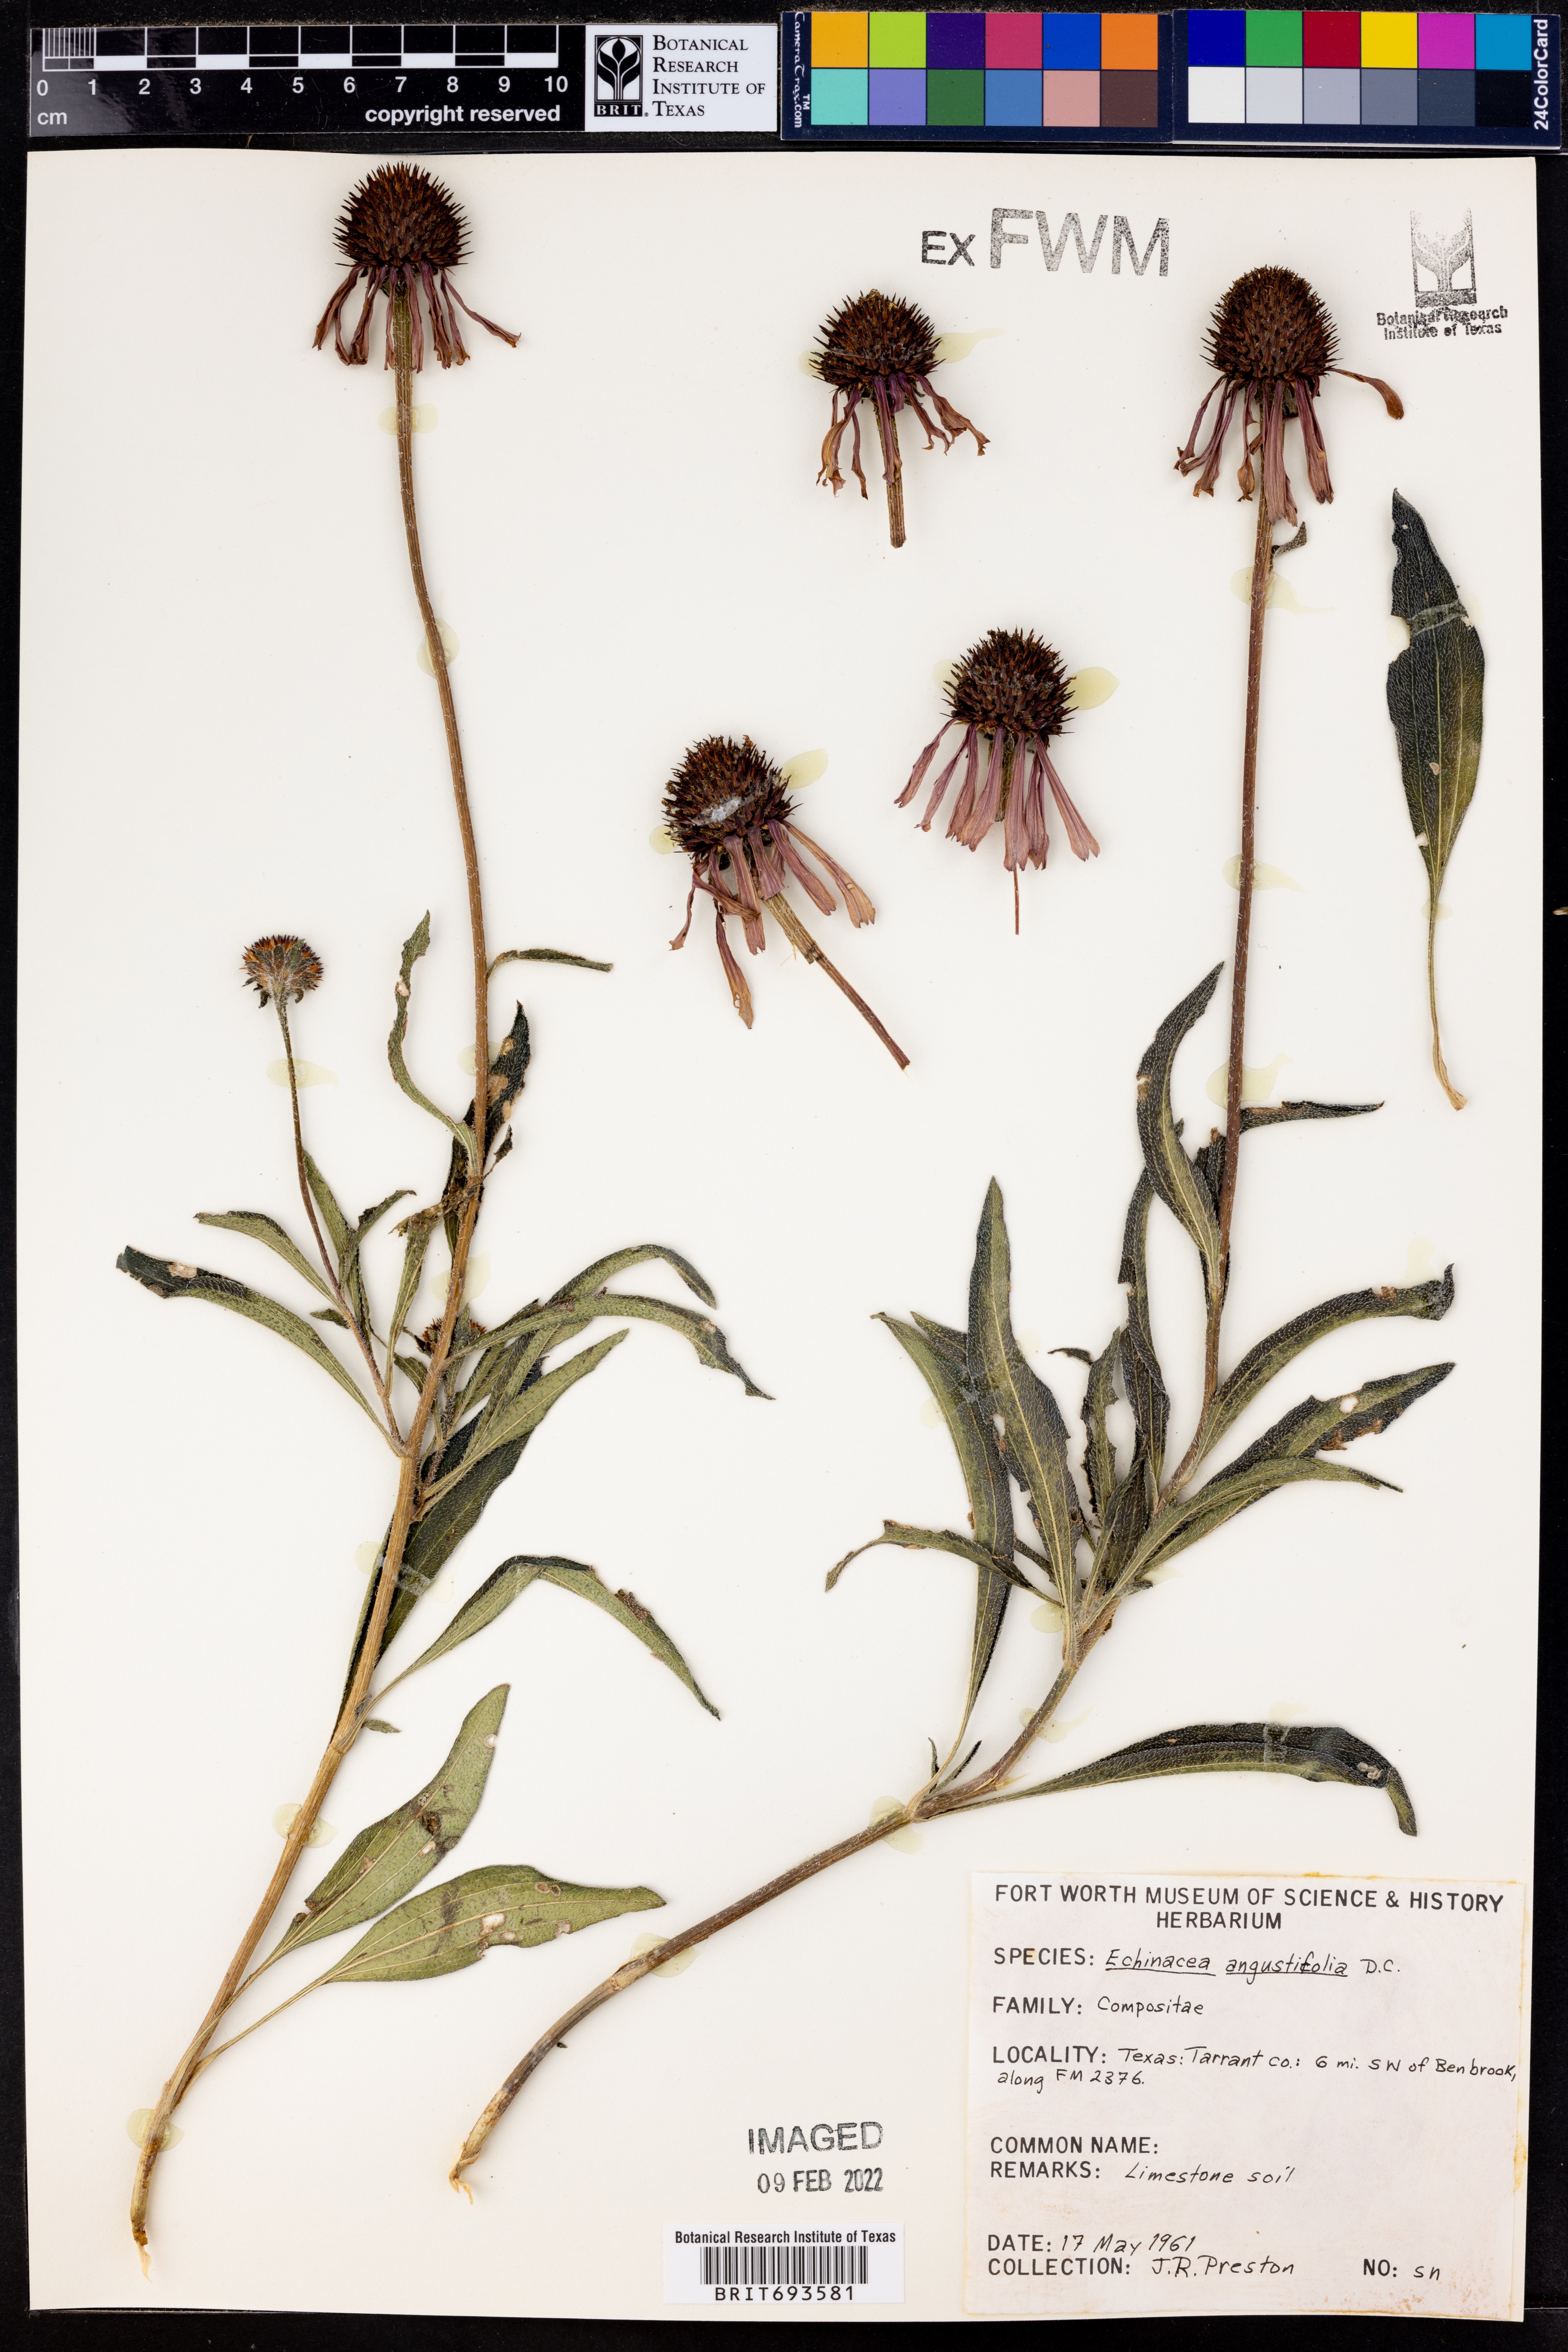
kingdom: Plantae
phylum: Tracheophyta
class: Magnoliopsida
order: Asterales
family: Asteraceae
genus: Echinacea
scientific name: Echinacea angustifolia
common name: Black-sampson echinacea
